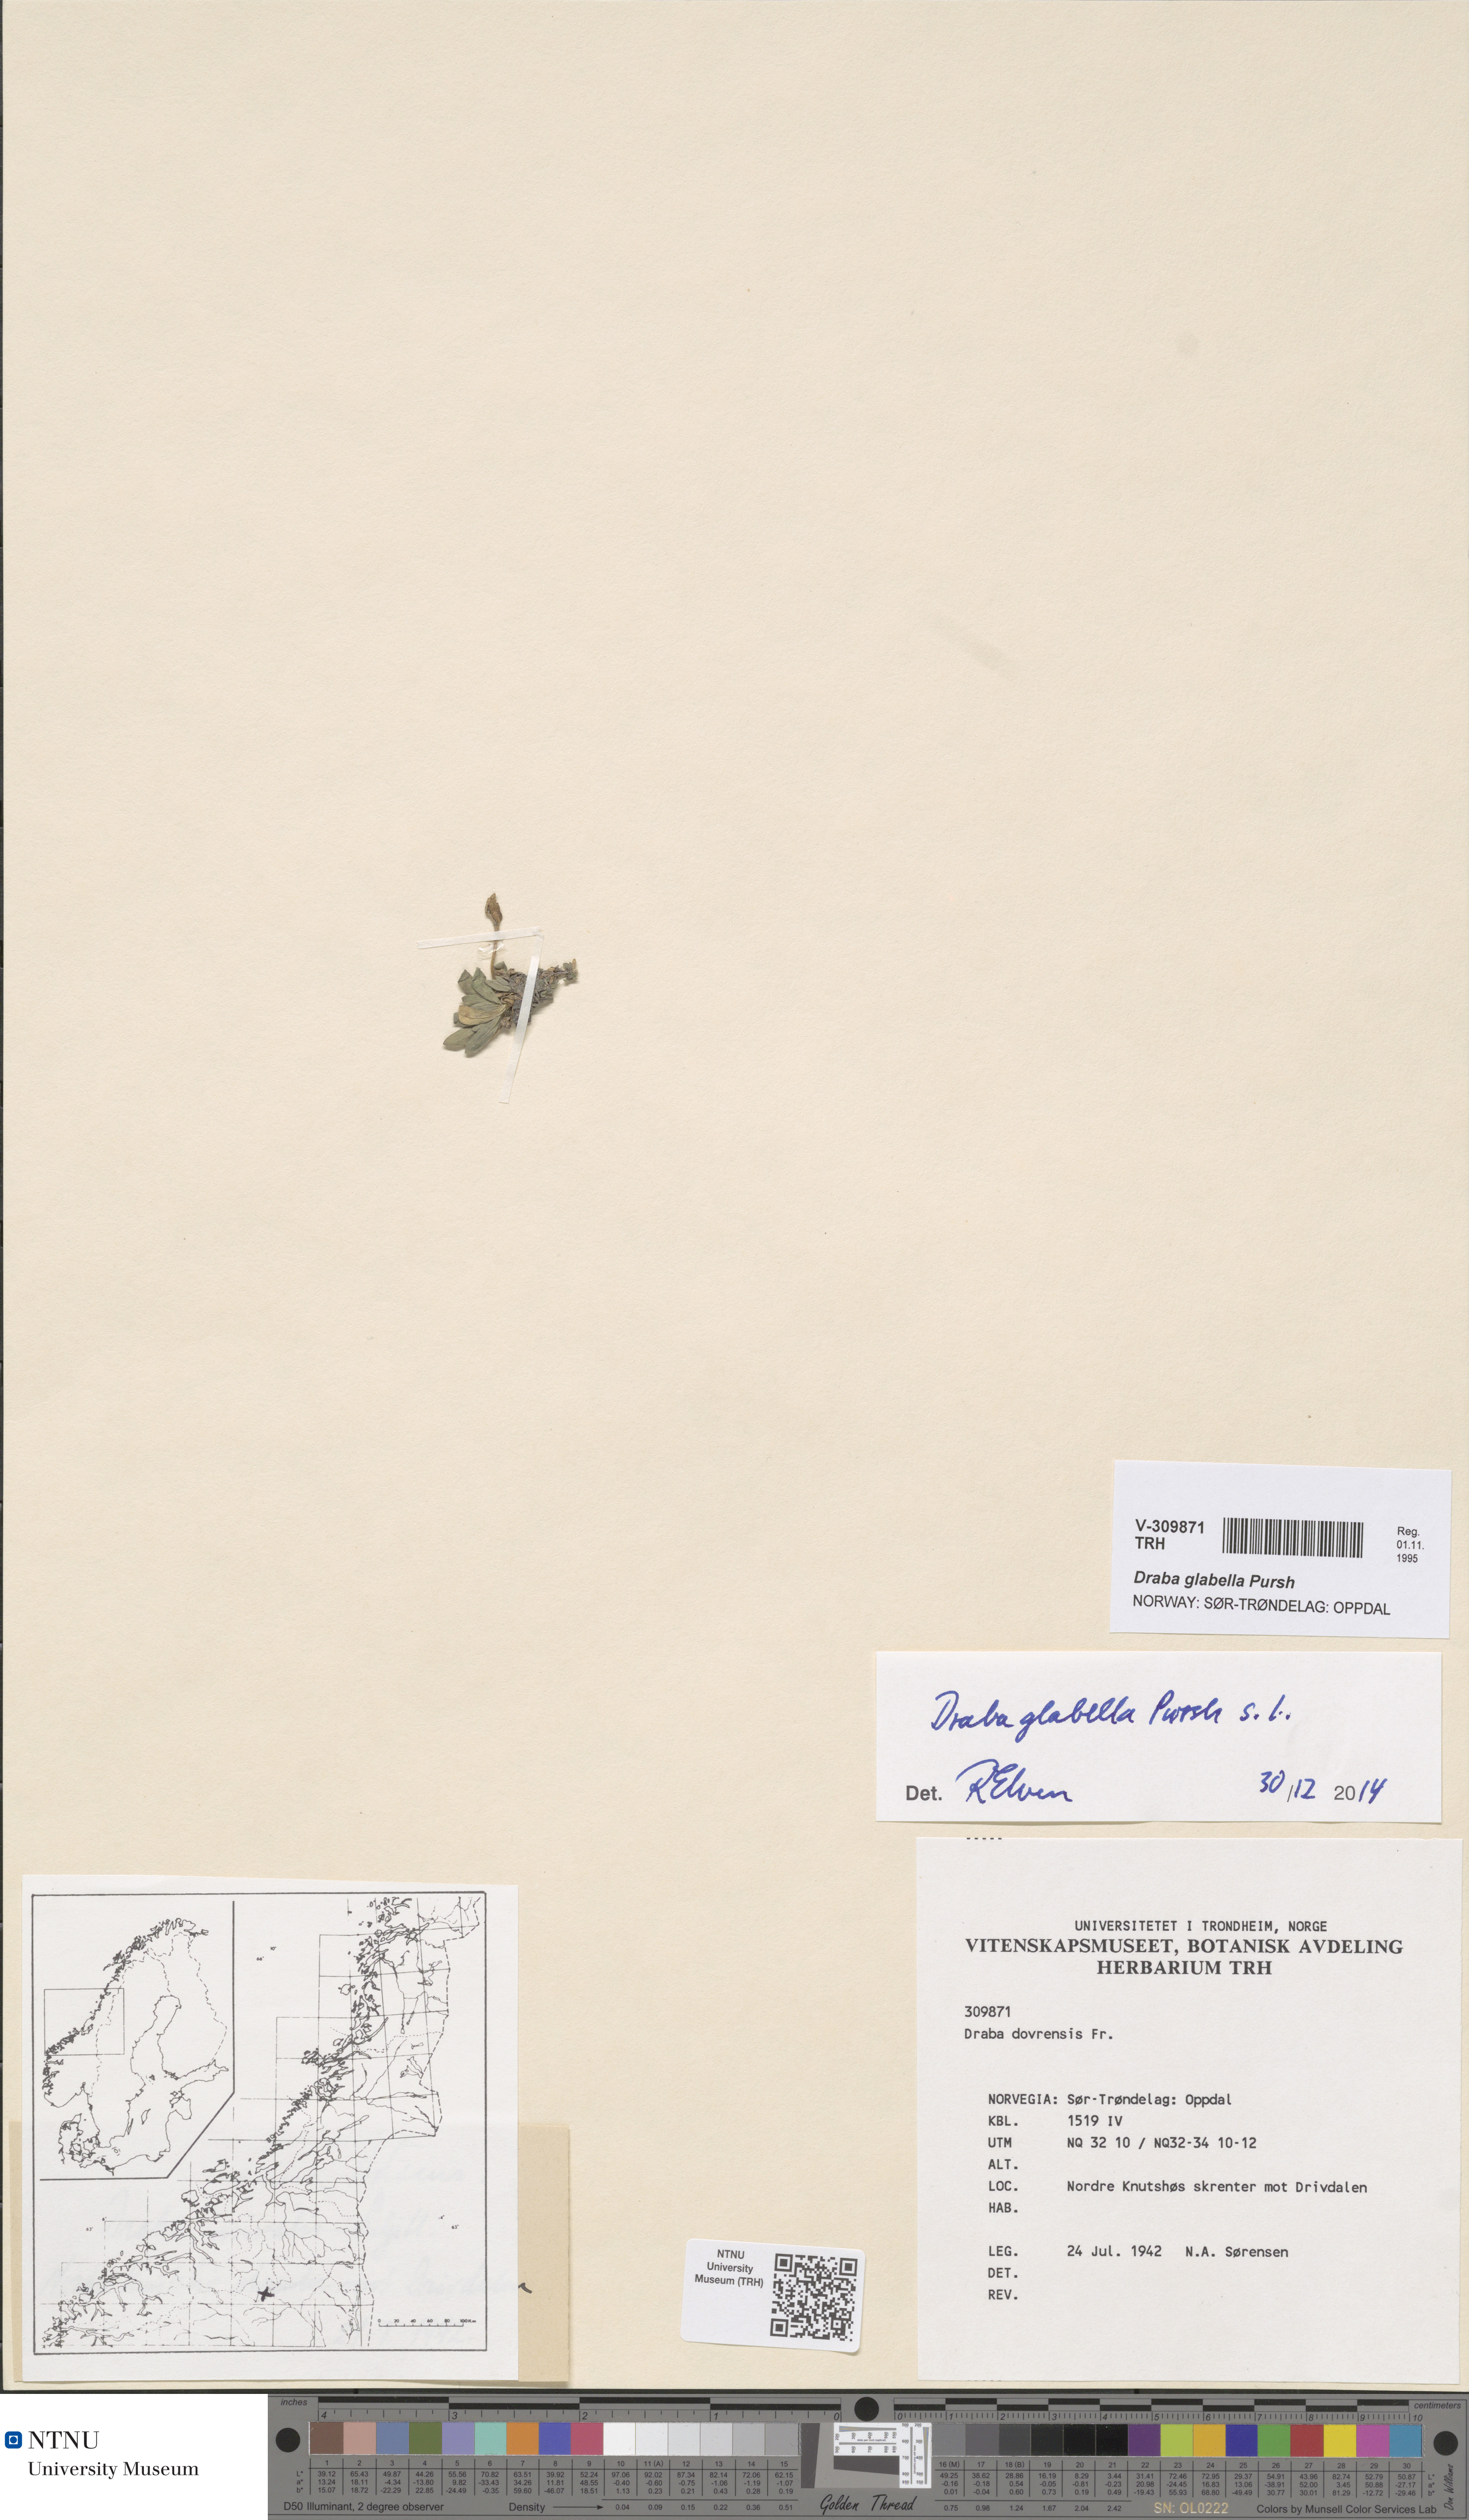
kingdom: Plantae
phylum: Tracheophyta
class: Magnoliopsida
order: Brassicales
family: Brassicaceae
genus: Draba
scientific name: Draba glabella
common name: Glaucous draba
